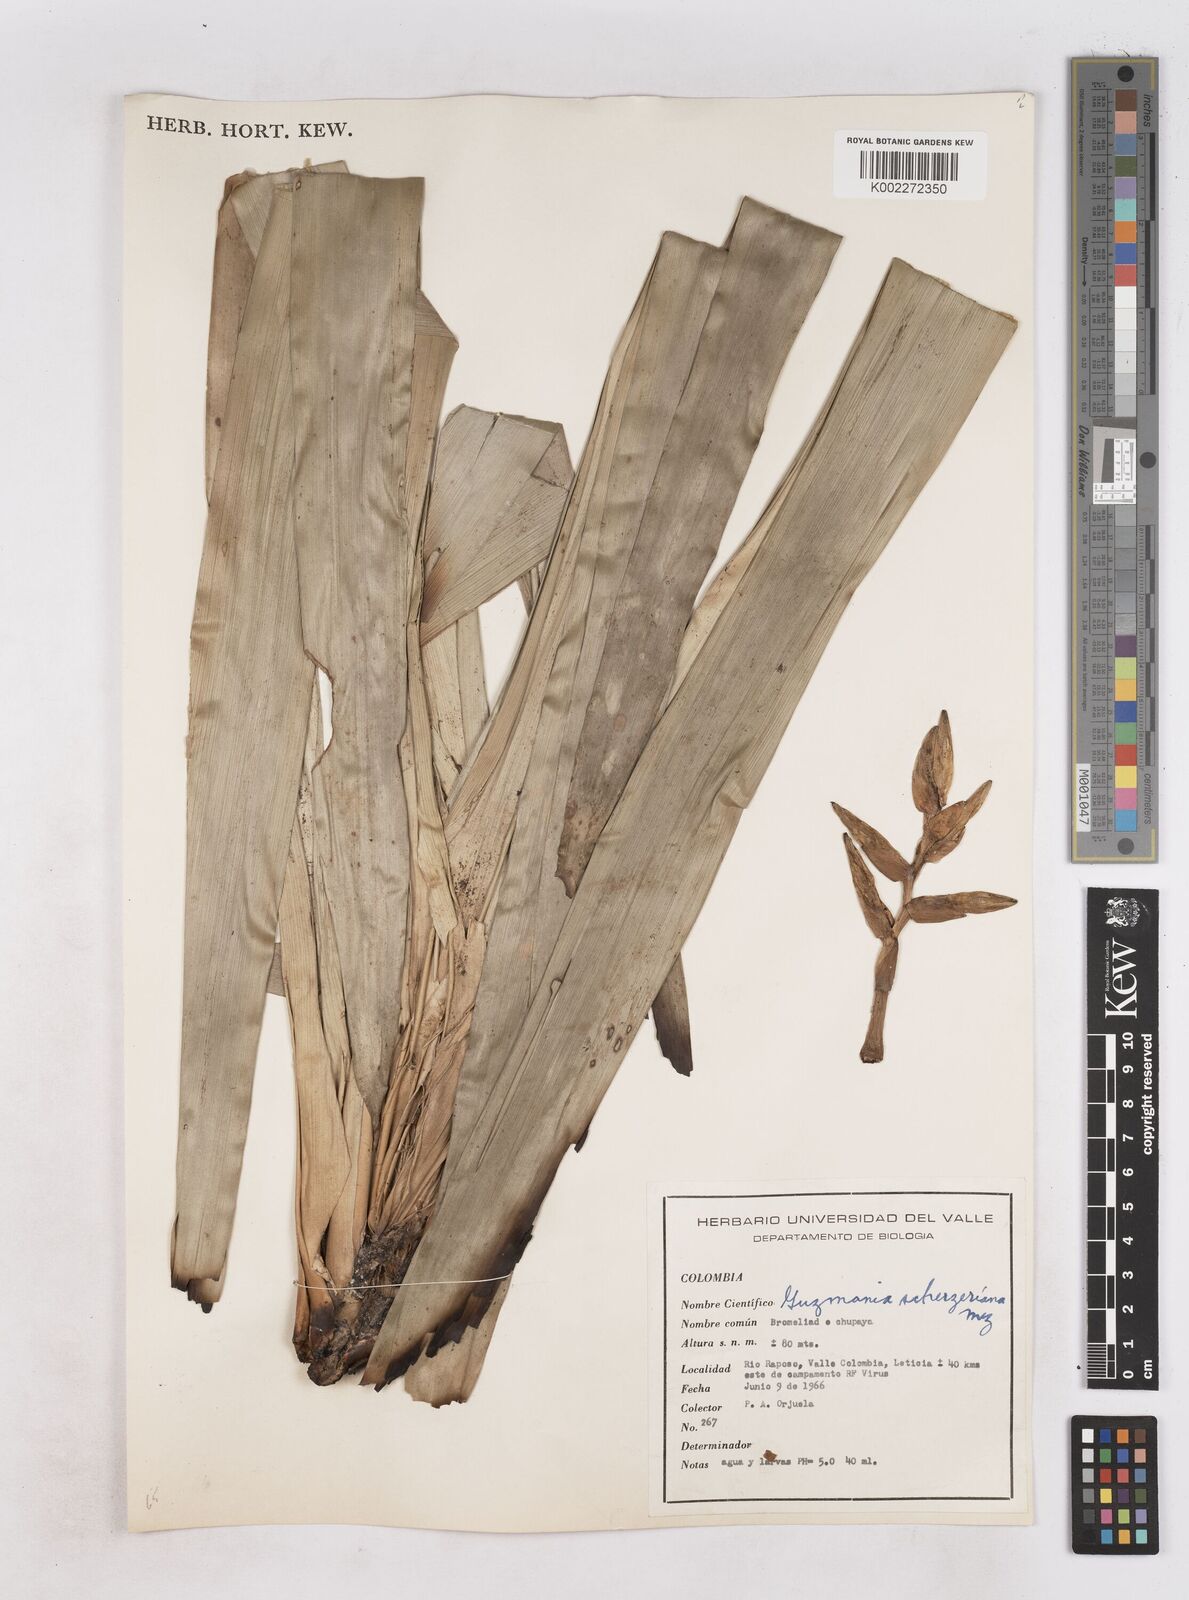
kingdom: Plantae
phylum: Tracheophyta
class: Liliopsida
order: Poales
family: Bromeliaceae
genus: Guzmania
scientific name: Guzmania scherzeriana
